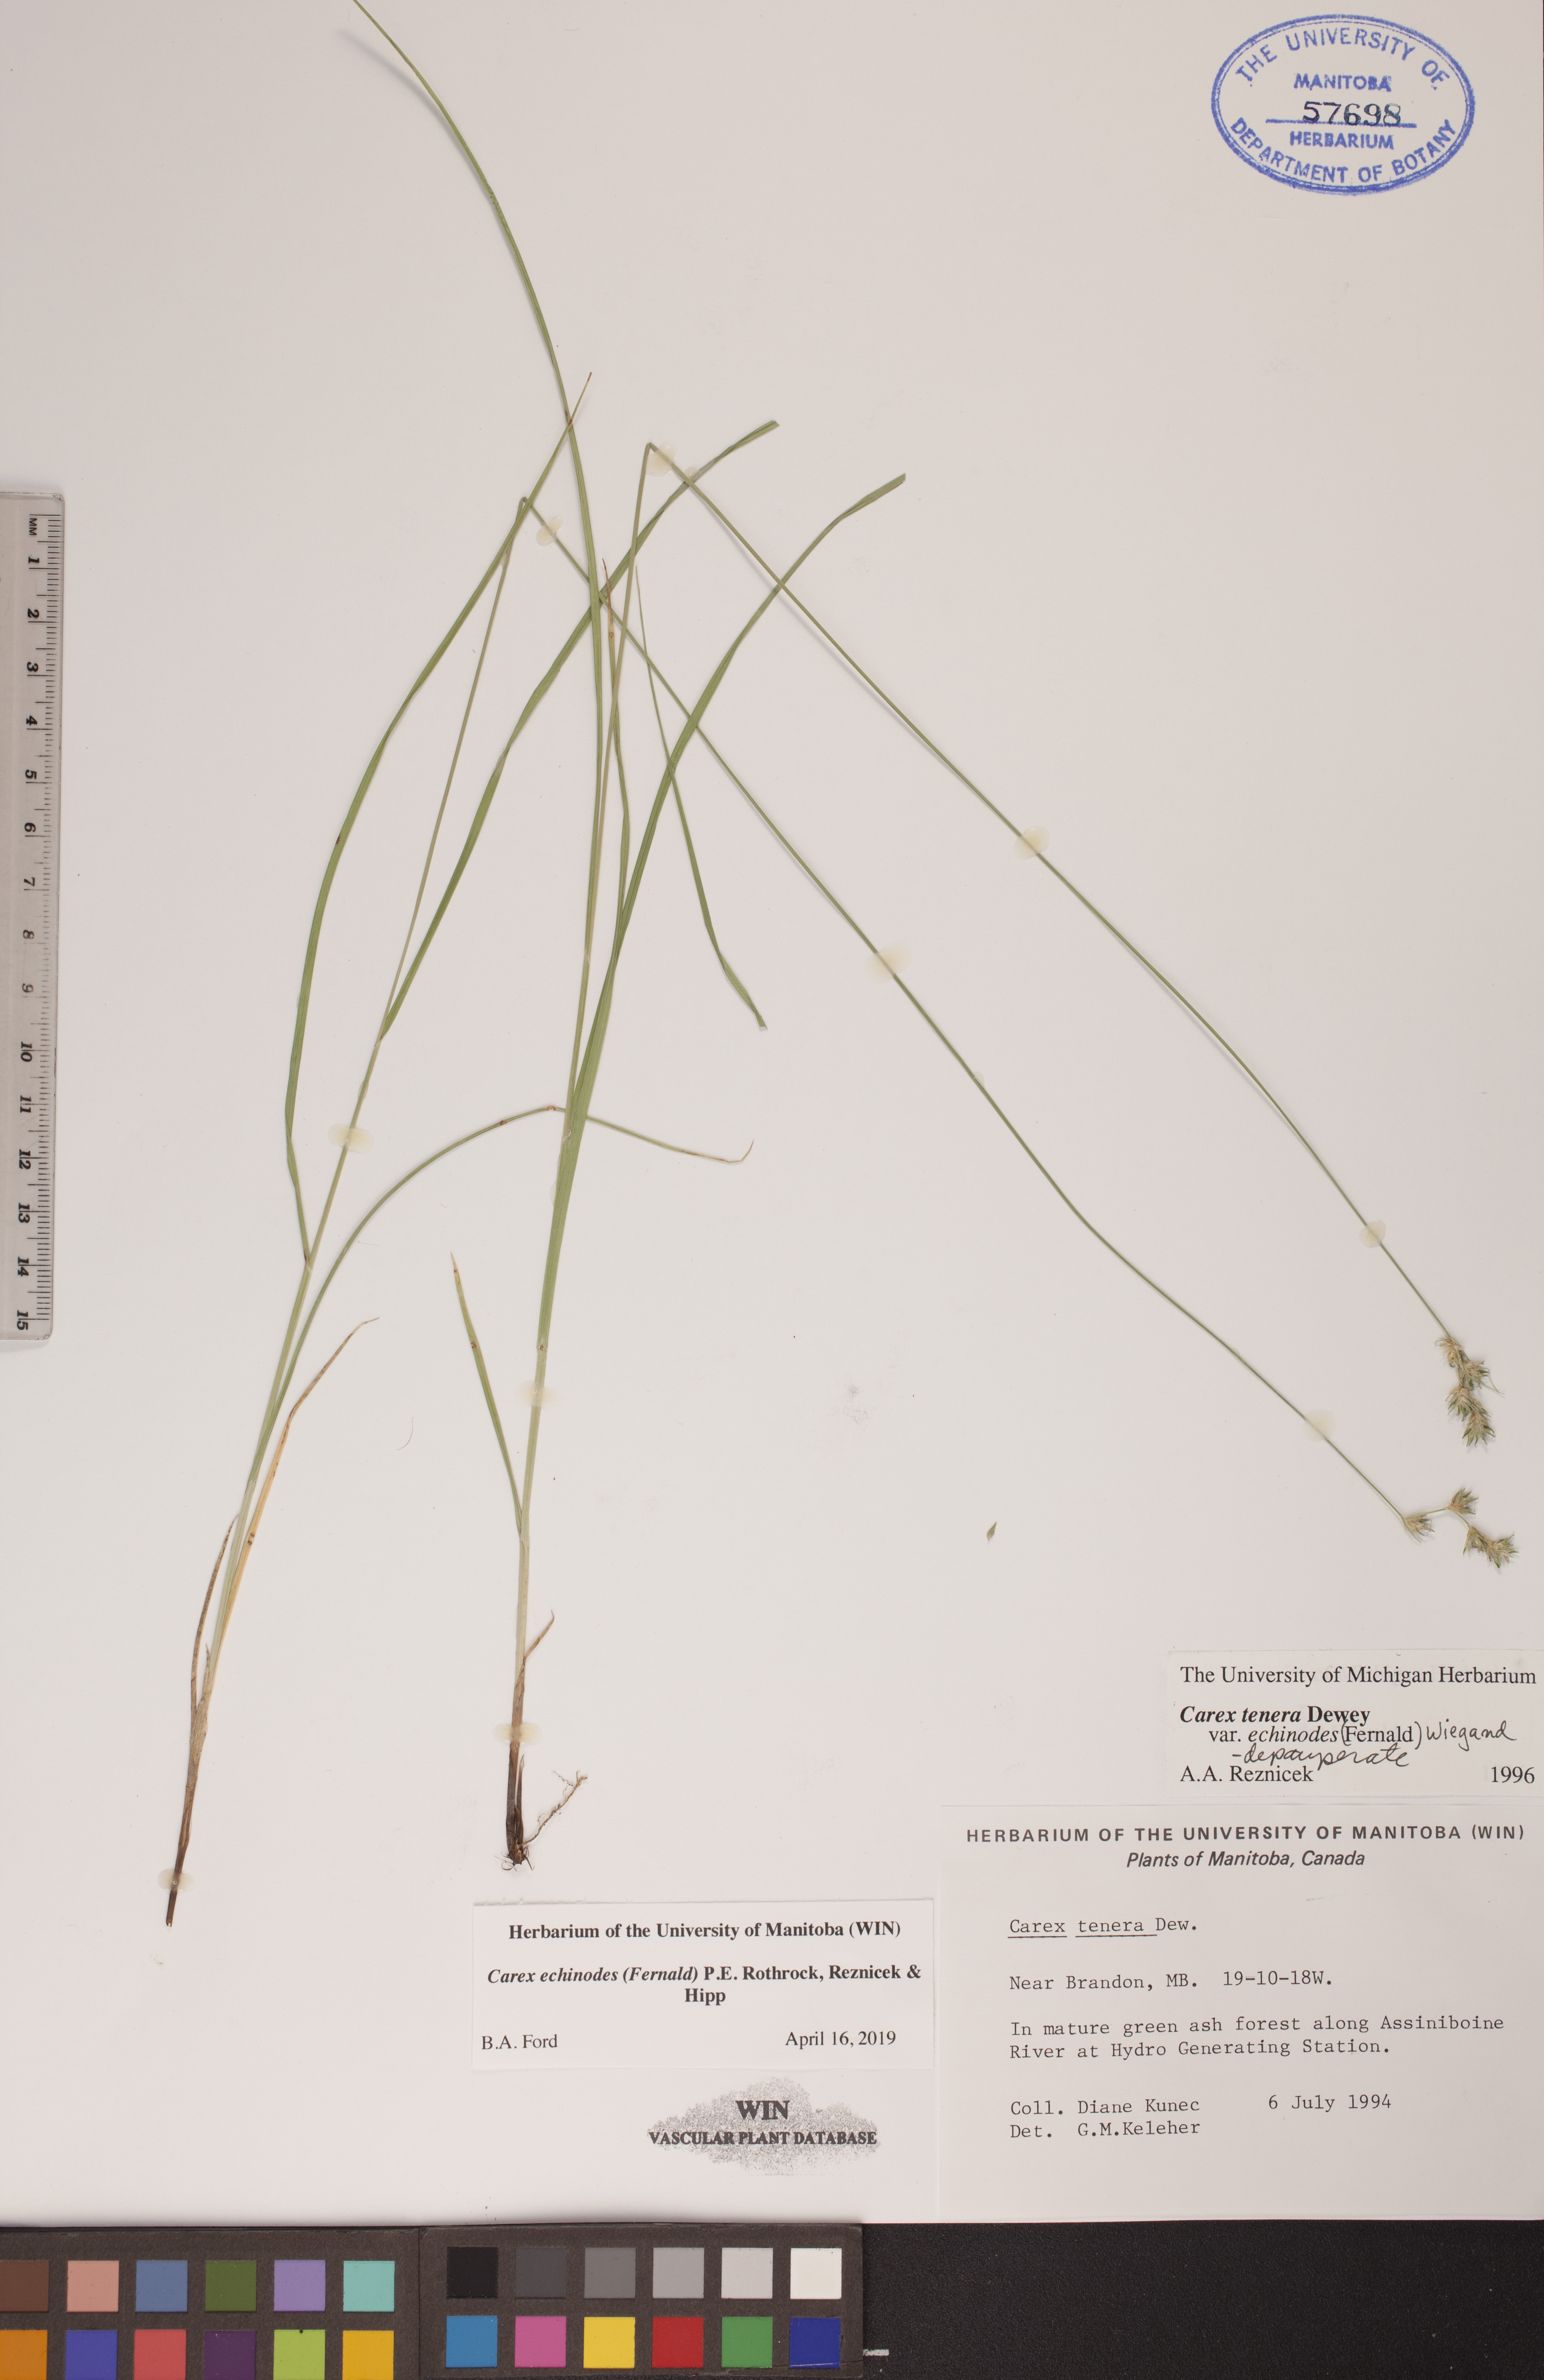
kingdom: Plantae
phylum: Tracheophyta
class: Liliopsida
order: Poales
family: Cyperaceae
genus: Carex
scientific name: Carex echinodes
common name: Marsh straw sedge
